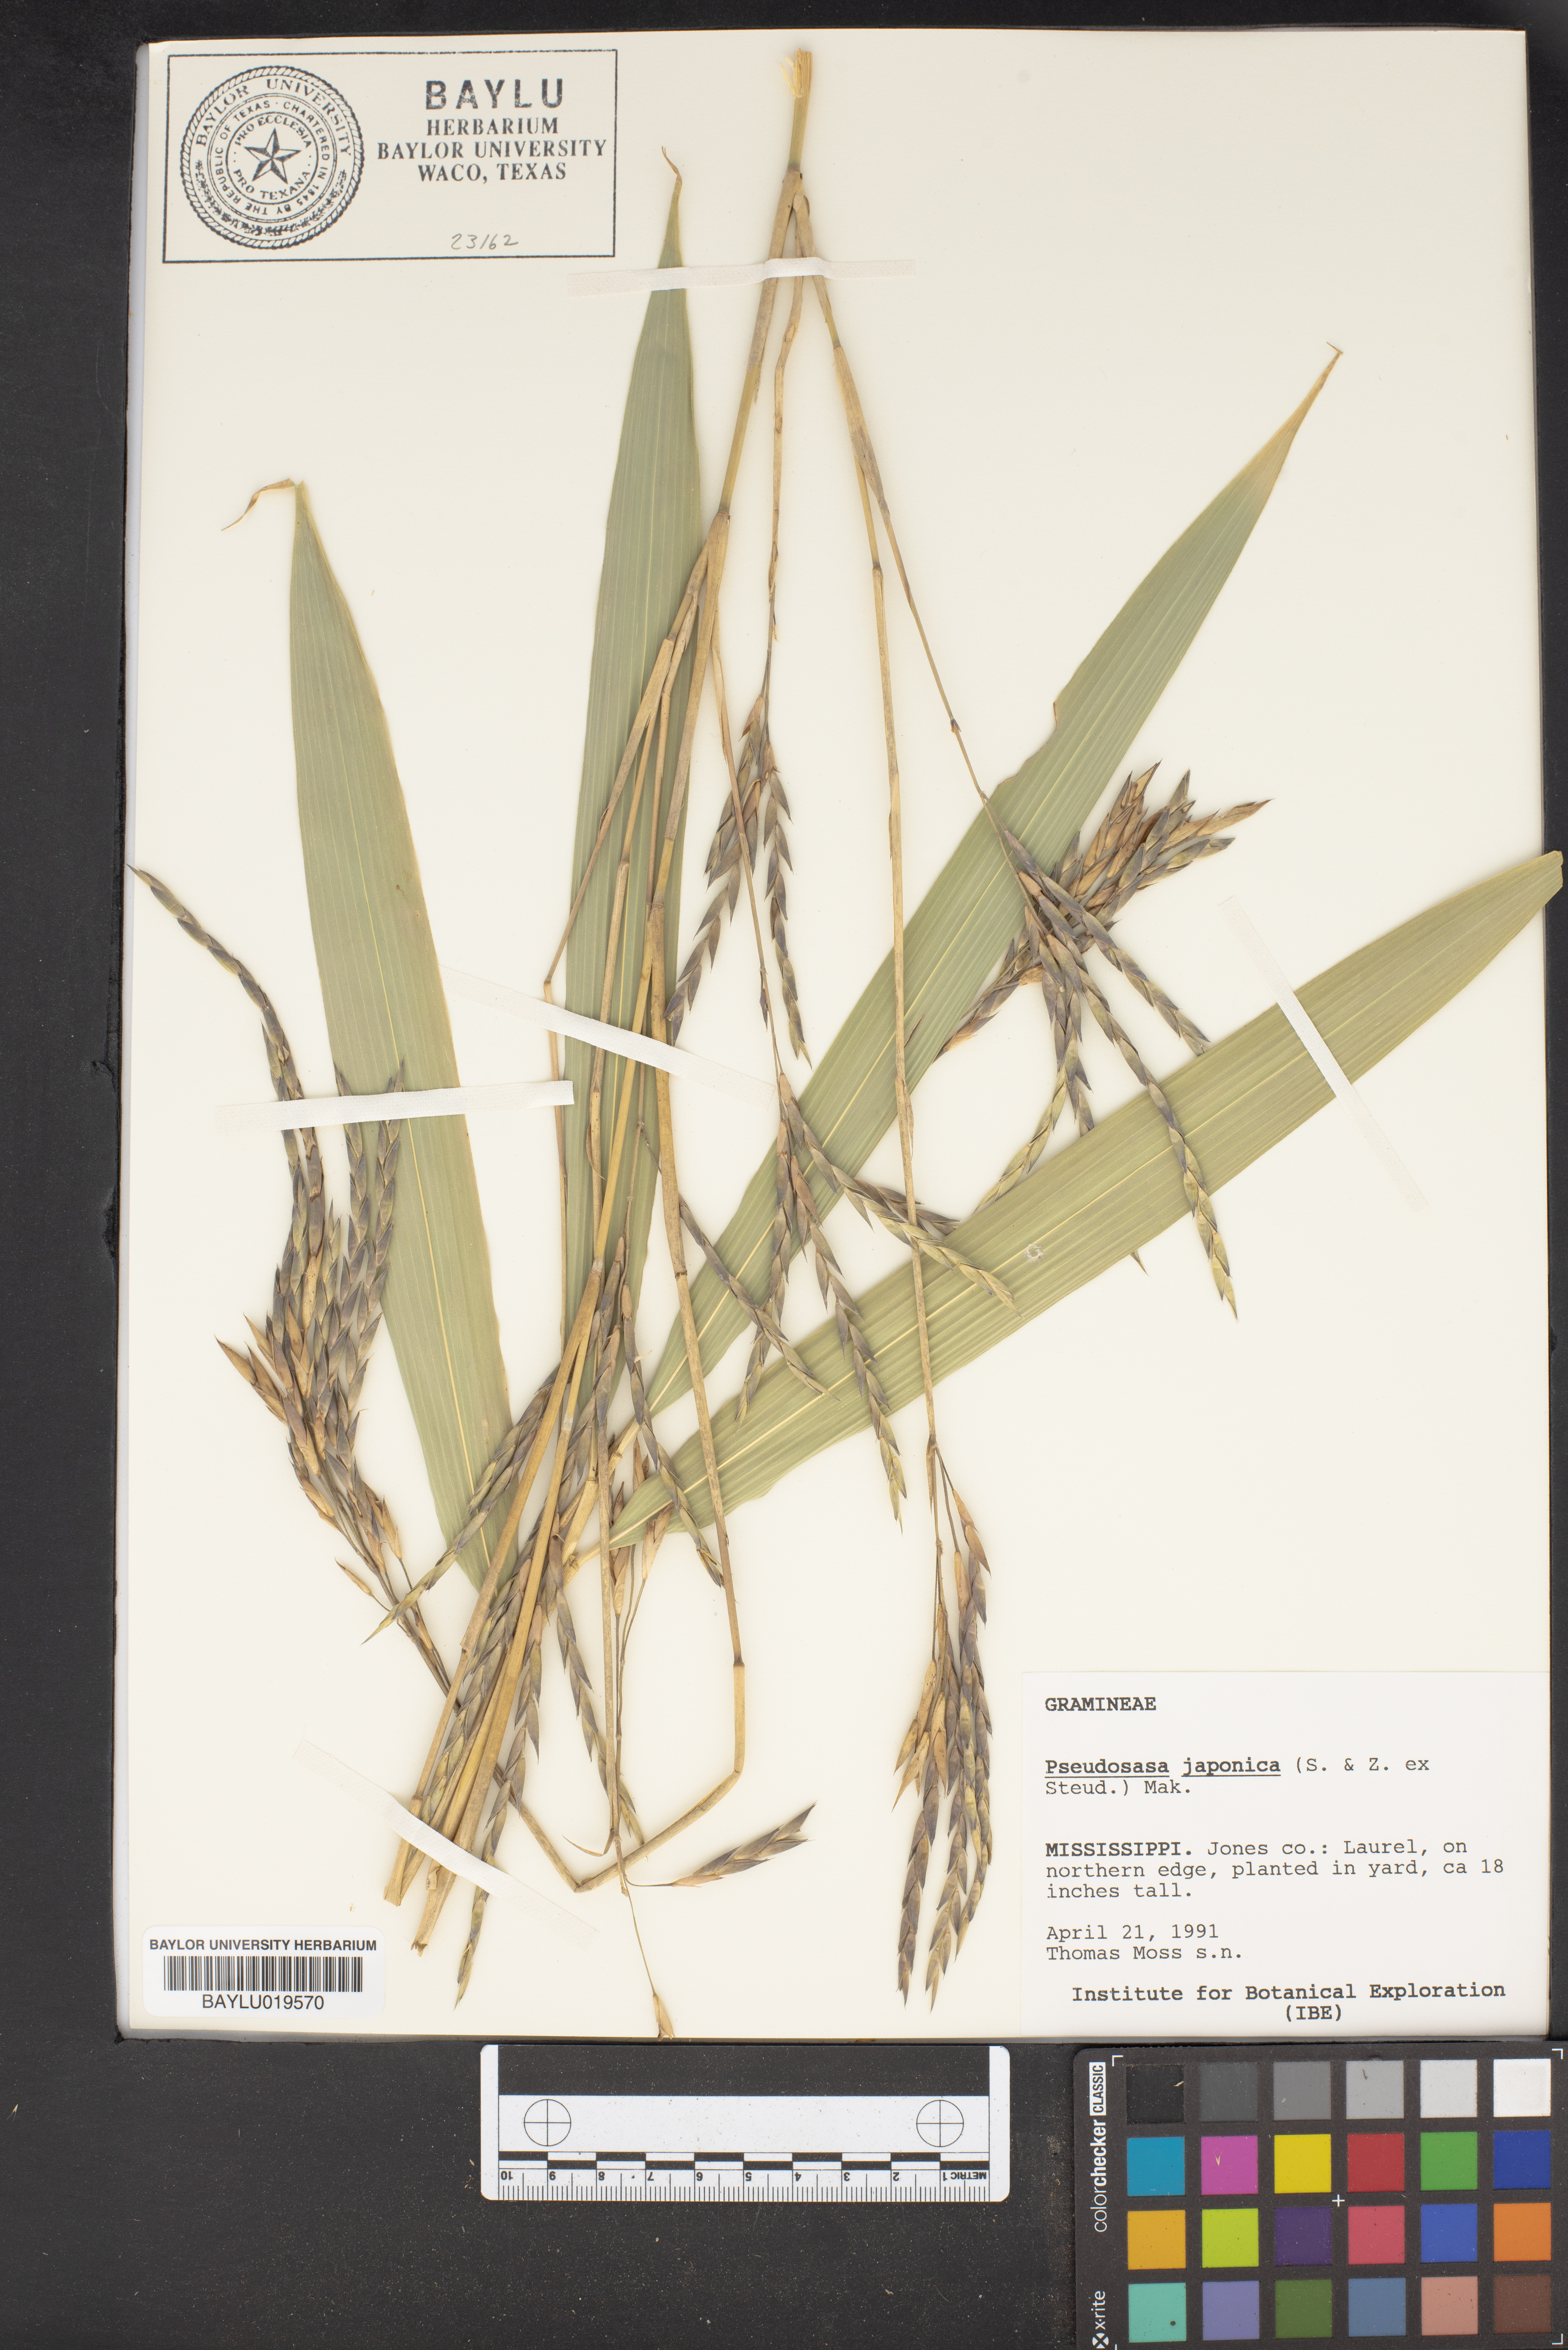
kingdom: Plantae
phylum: Tracheophyta
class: Liliopsida
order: Poales
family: Poaceae
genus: Pseudosasa
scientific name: Pseudosasa japonica
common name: Arrow bamboo
